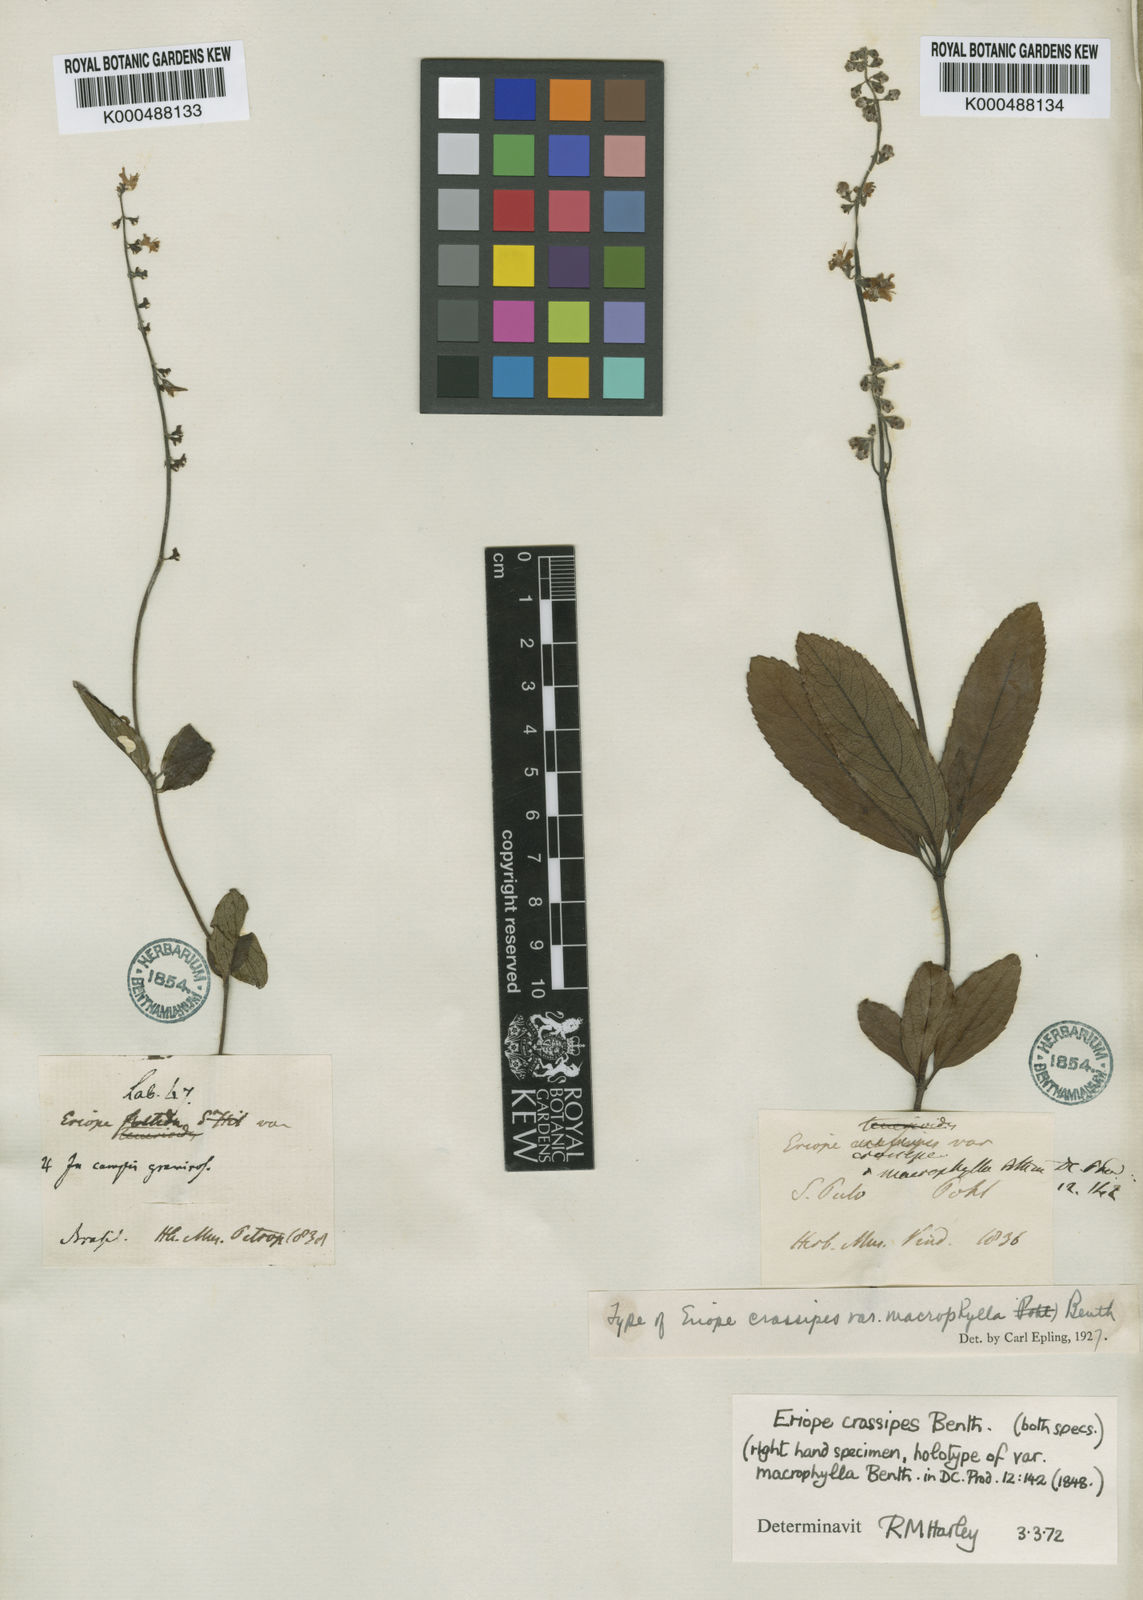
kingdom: Plantae
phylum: Tracheophyta
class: Magnoliopsida
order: Lamiales
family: Lamiaceae
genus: Eriope
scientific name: Eriope crassipes
